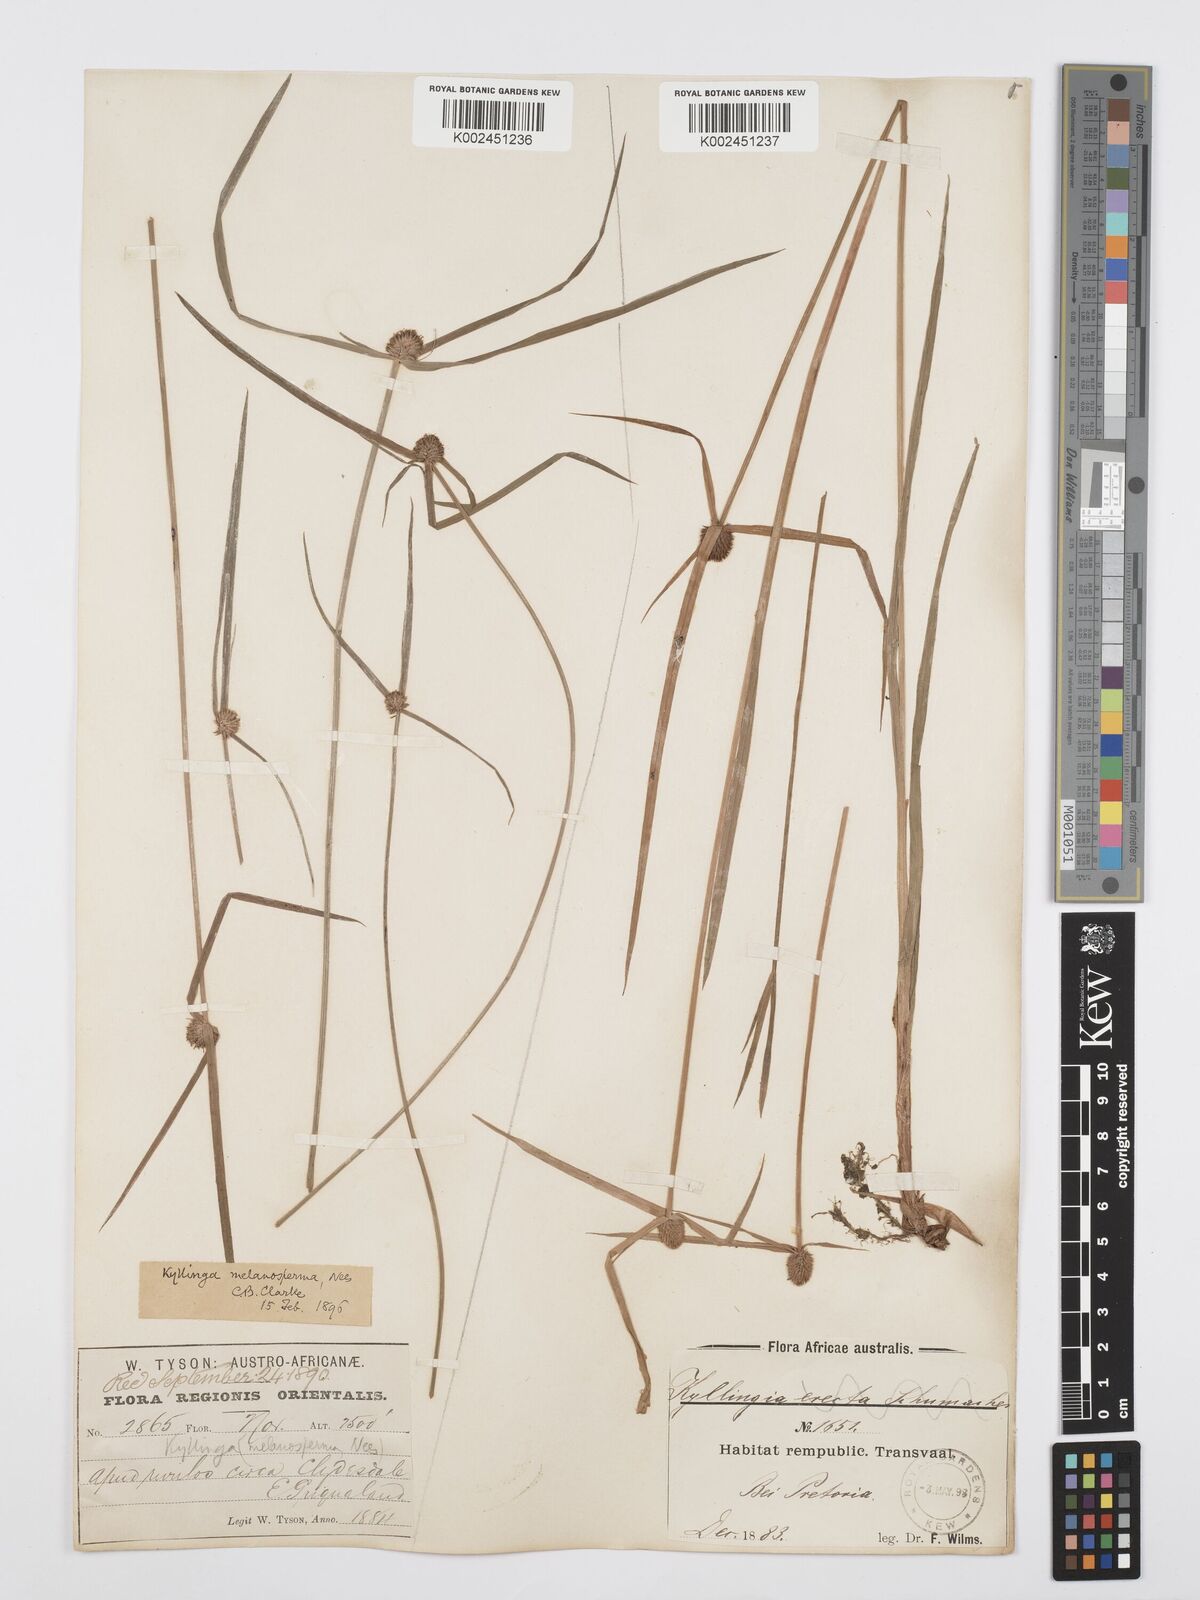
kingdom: Plantae
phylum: Tracheophyta
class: Liliopsida
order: Poales
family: Cyperaceae
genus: Cyperus
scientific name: Cyperus melanospermus
